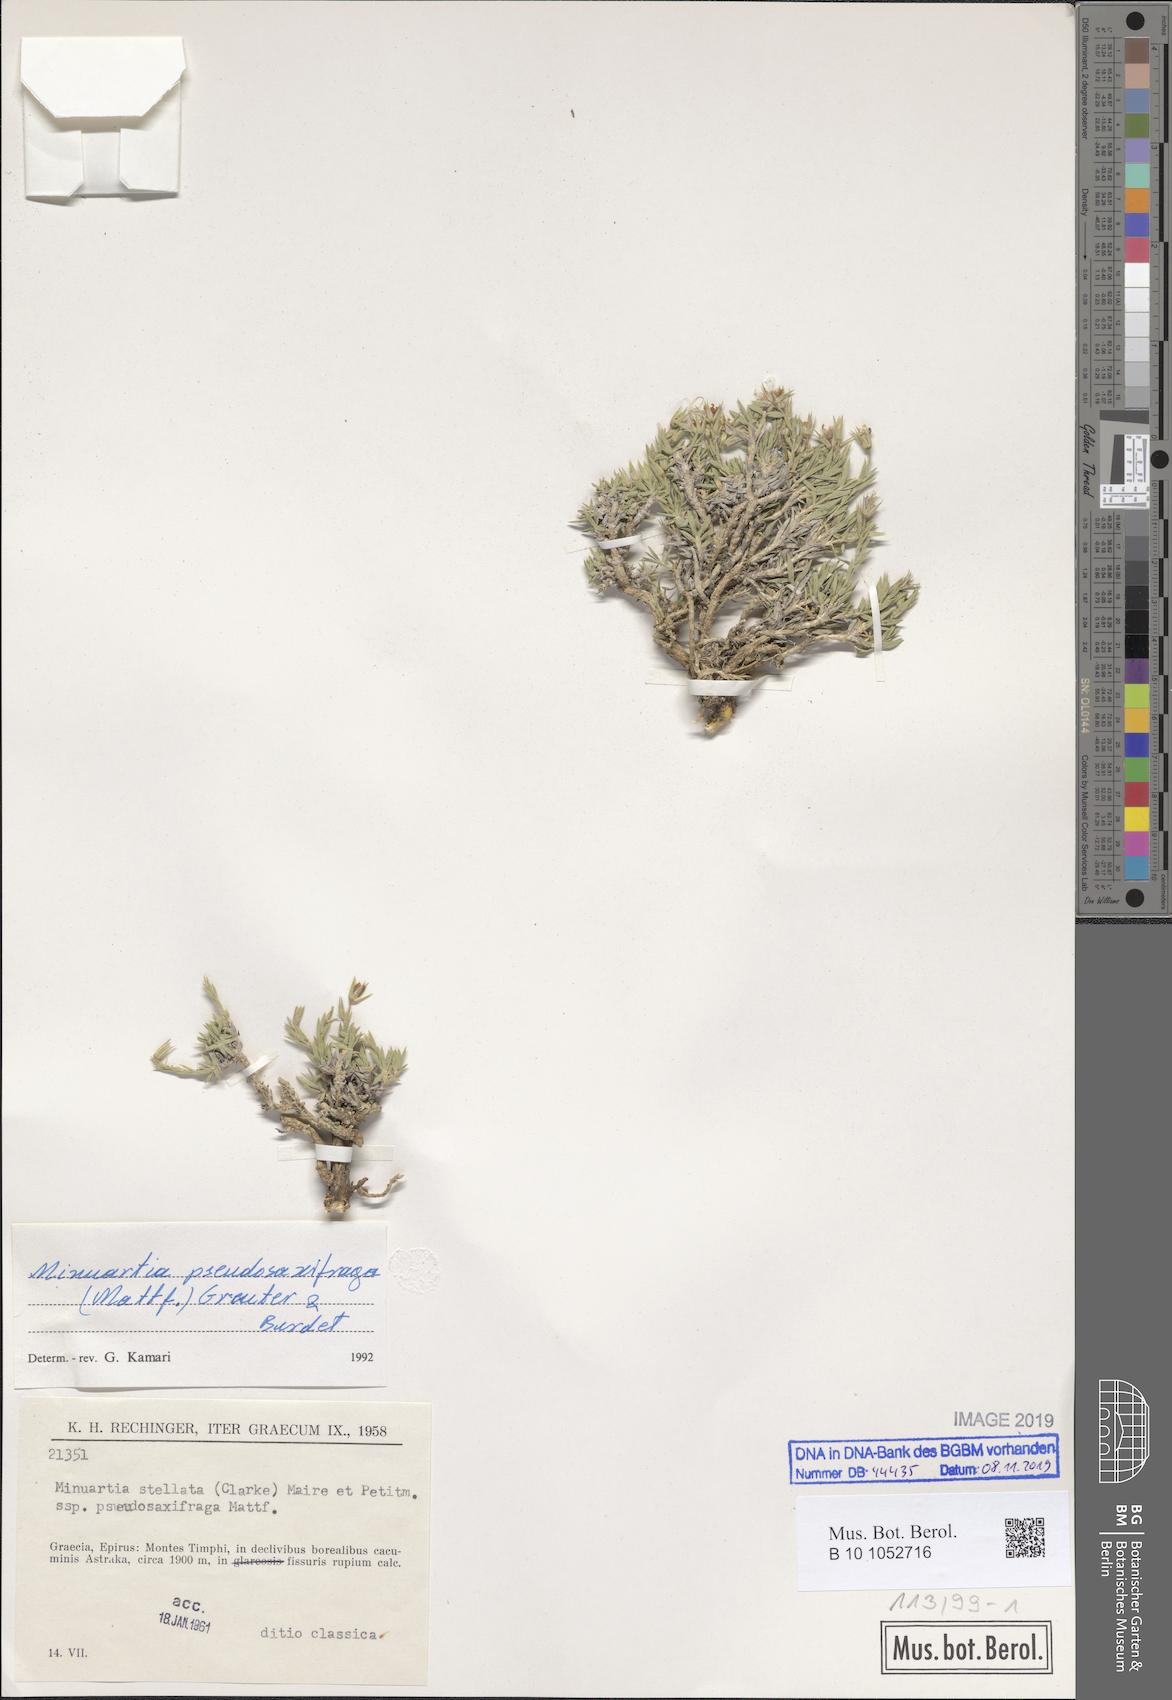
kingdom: Plantae
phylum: Tracheophyta
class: Magnoliopsida
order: Caryophyllales
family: Caryophyllaceae
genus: Mcneillia
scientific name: Mcneillia pseudosaxifraga
